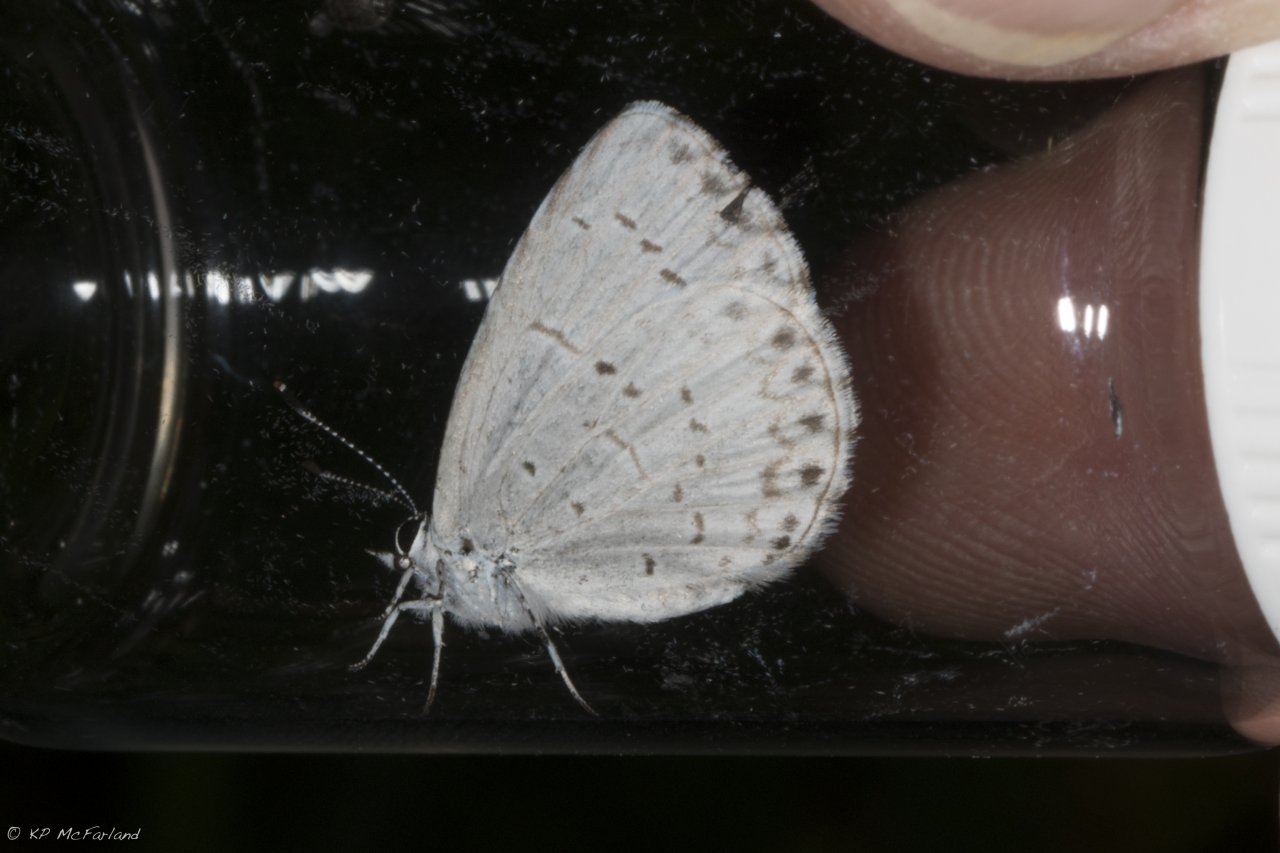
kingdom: Animalia
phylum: Arthropoda
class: Insecta
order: Lepidoptera
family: Lycaenidae
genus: Cyaniris
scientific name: Cyaniris neglecta
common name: Summer Azure
